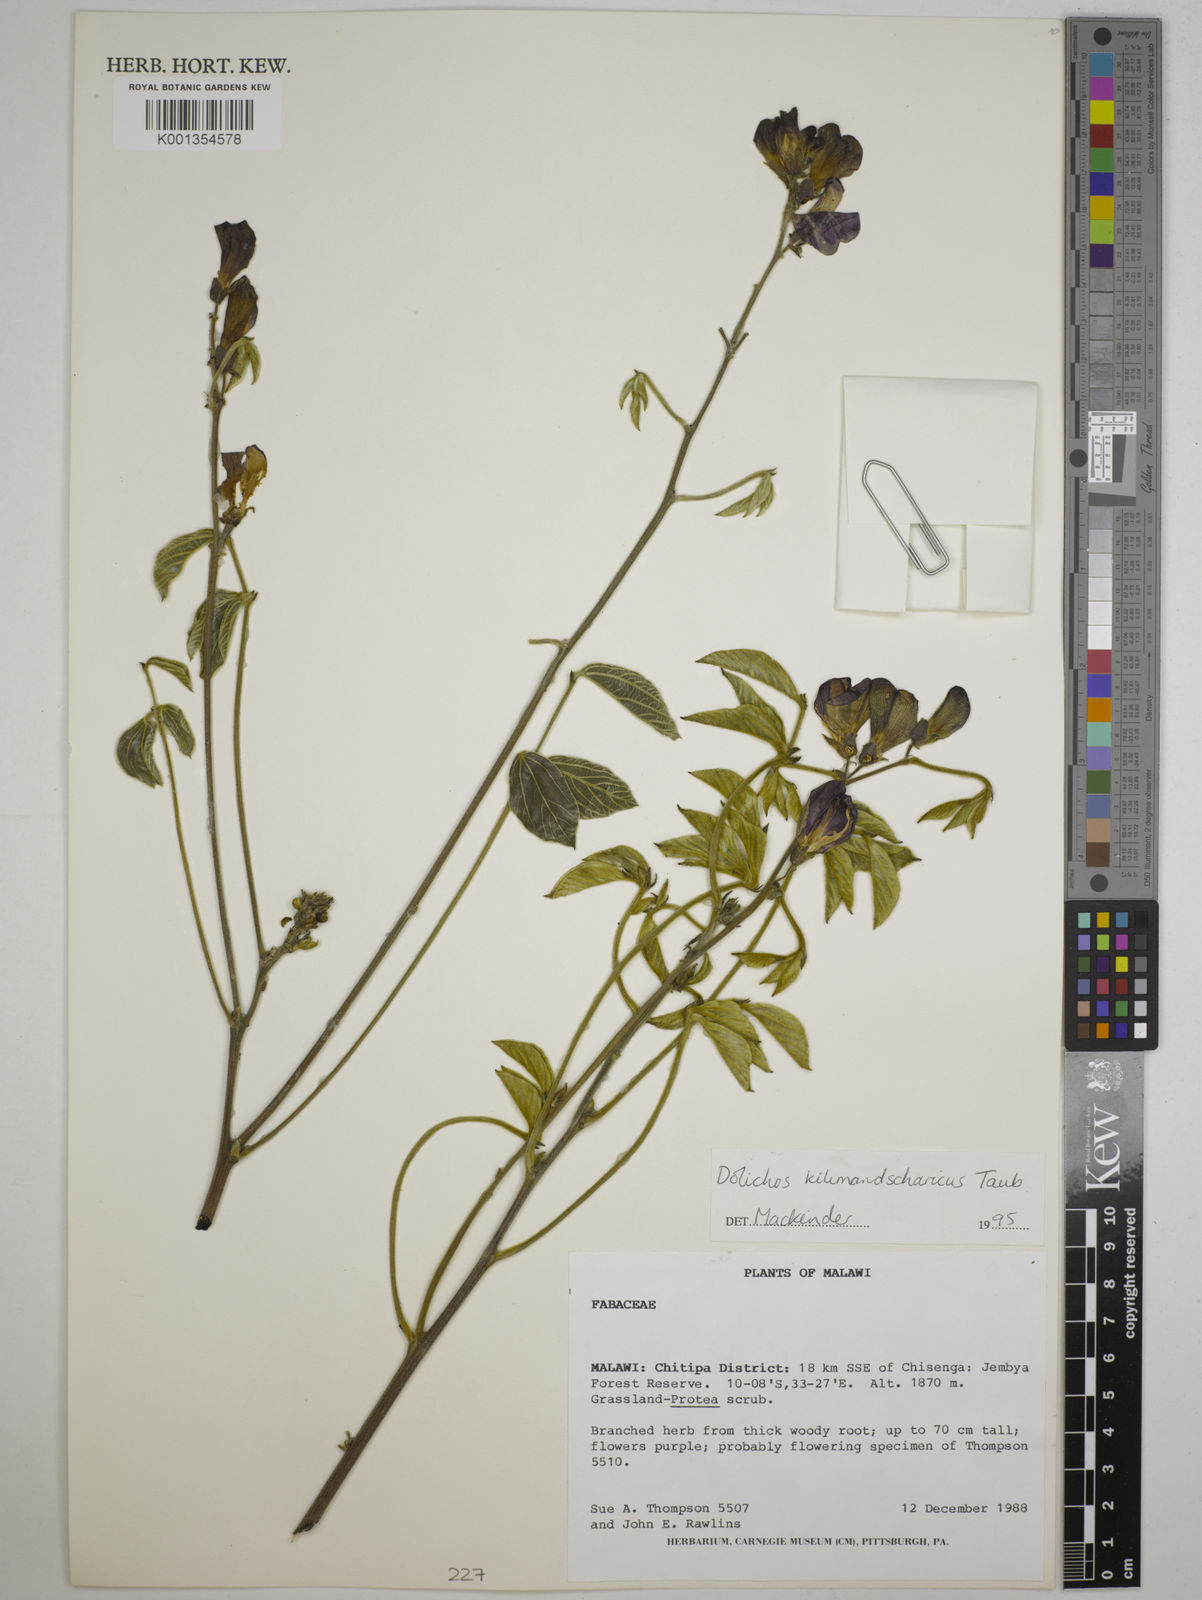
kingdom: Plantae
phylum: Tracheophyta
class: Magnoliopsida
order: Fabales
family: Fabaceae
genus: Dolichos
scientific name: Dolichos kilimandscharicus
